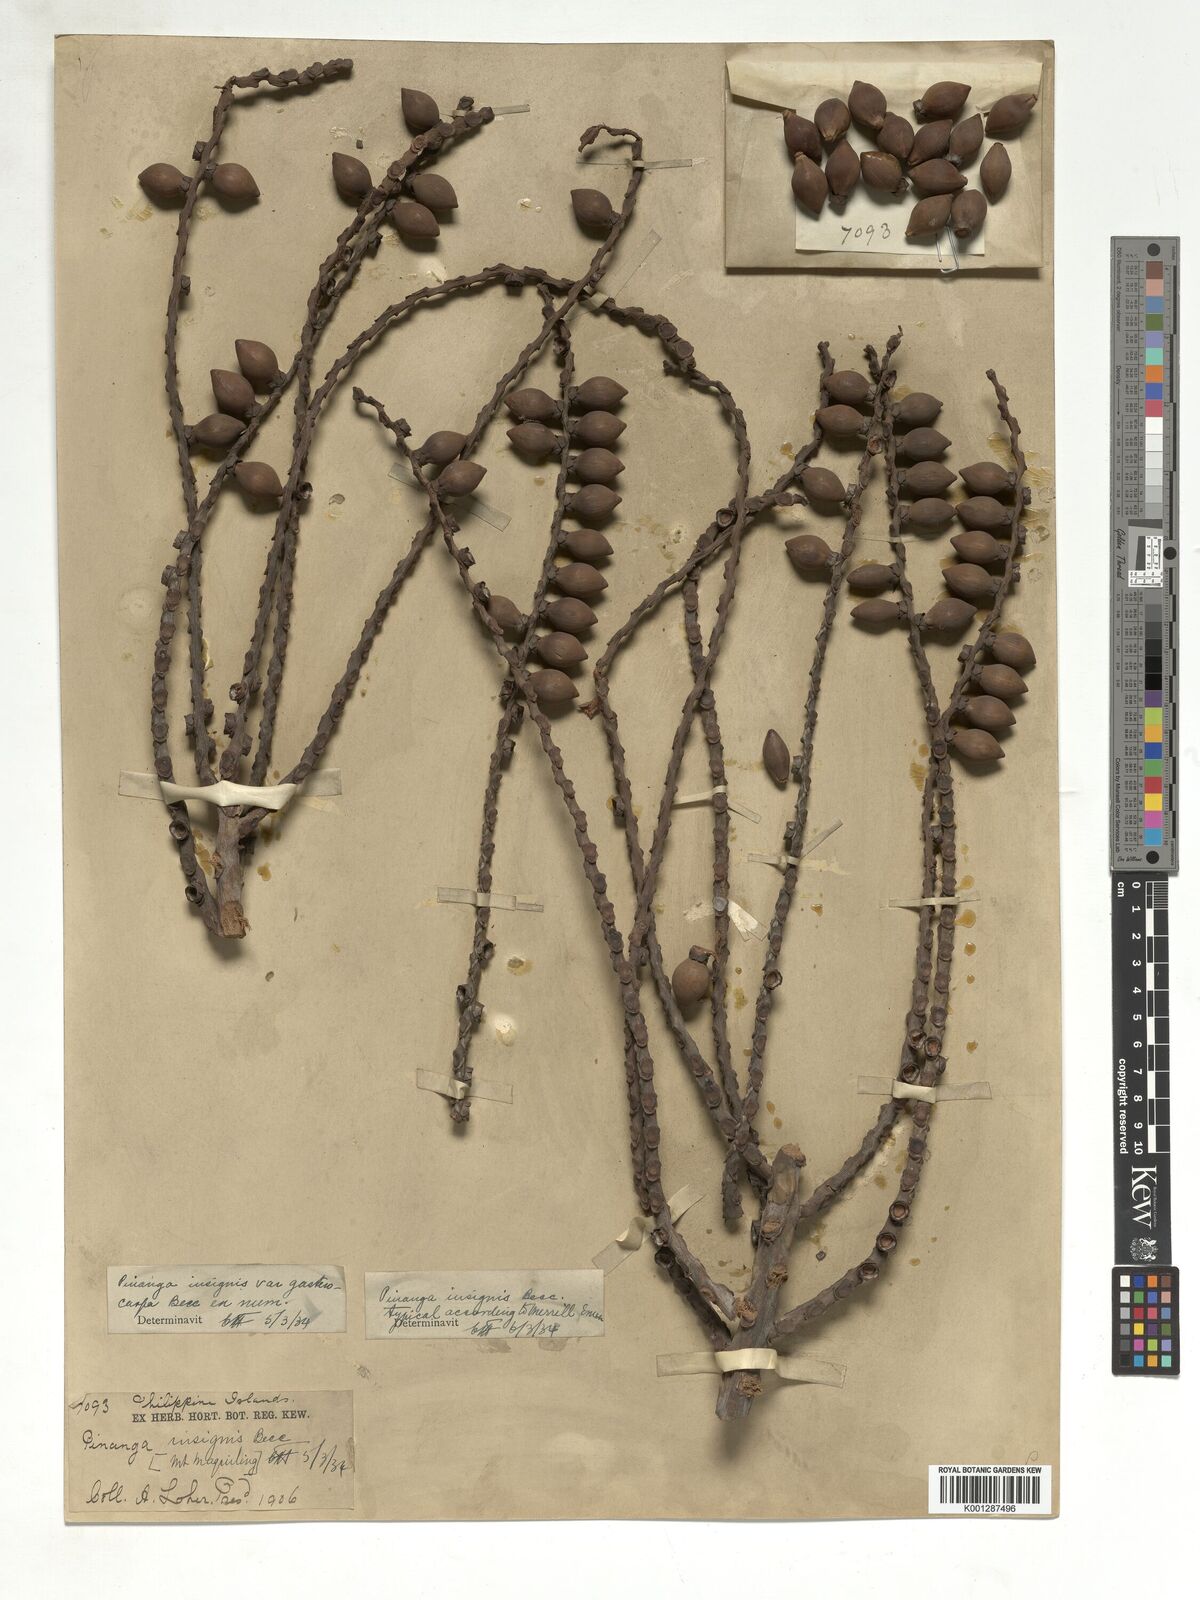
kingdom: Plantae
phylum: Tracheophyta
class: Liliopsida
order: Arecales
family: Arecaceae
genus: Pinanga
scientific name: Pinanga insignis
